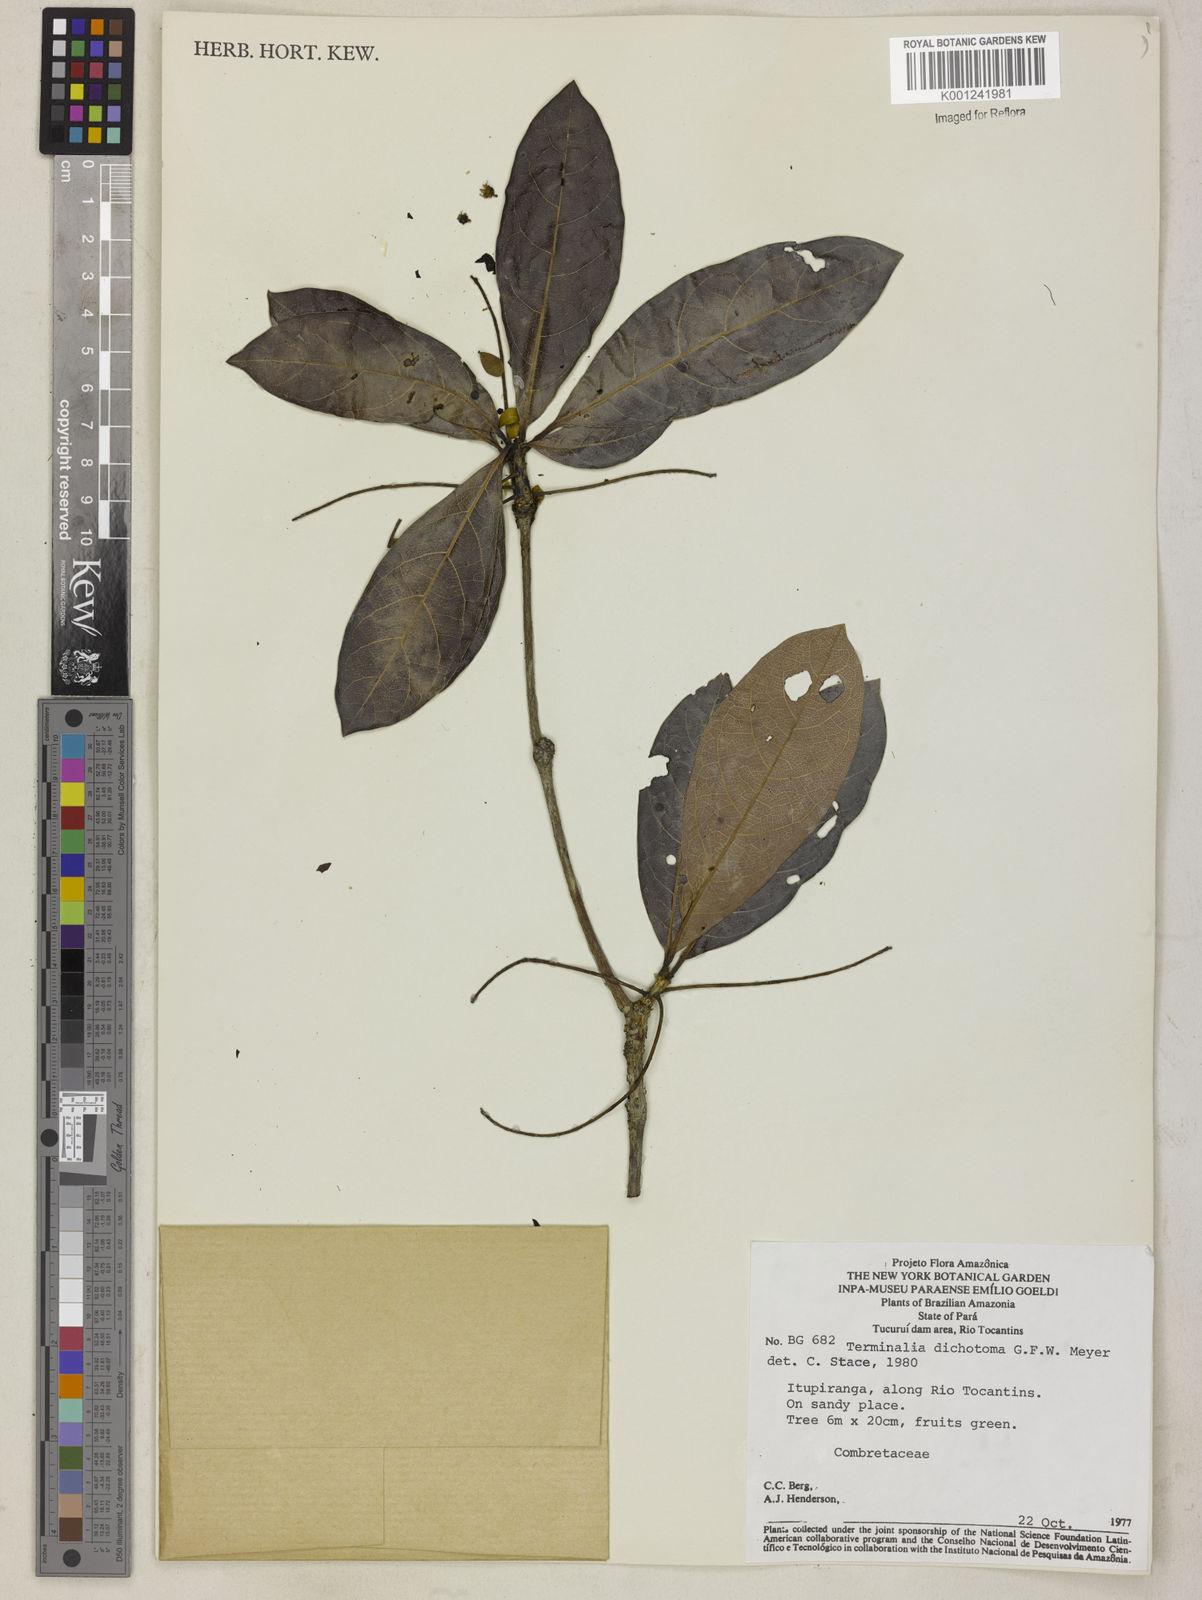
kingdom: Plantae
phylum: Tracheophyta
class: Magnoliopsida
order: Myrtales
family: Combretaceae
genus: Terminalia
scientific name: Terminalia dichotoma
